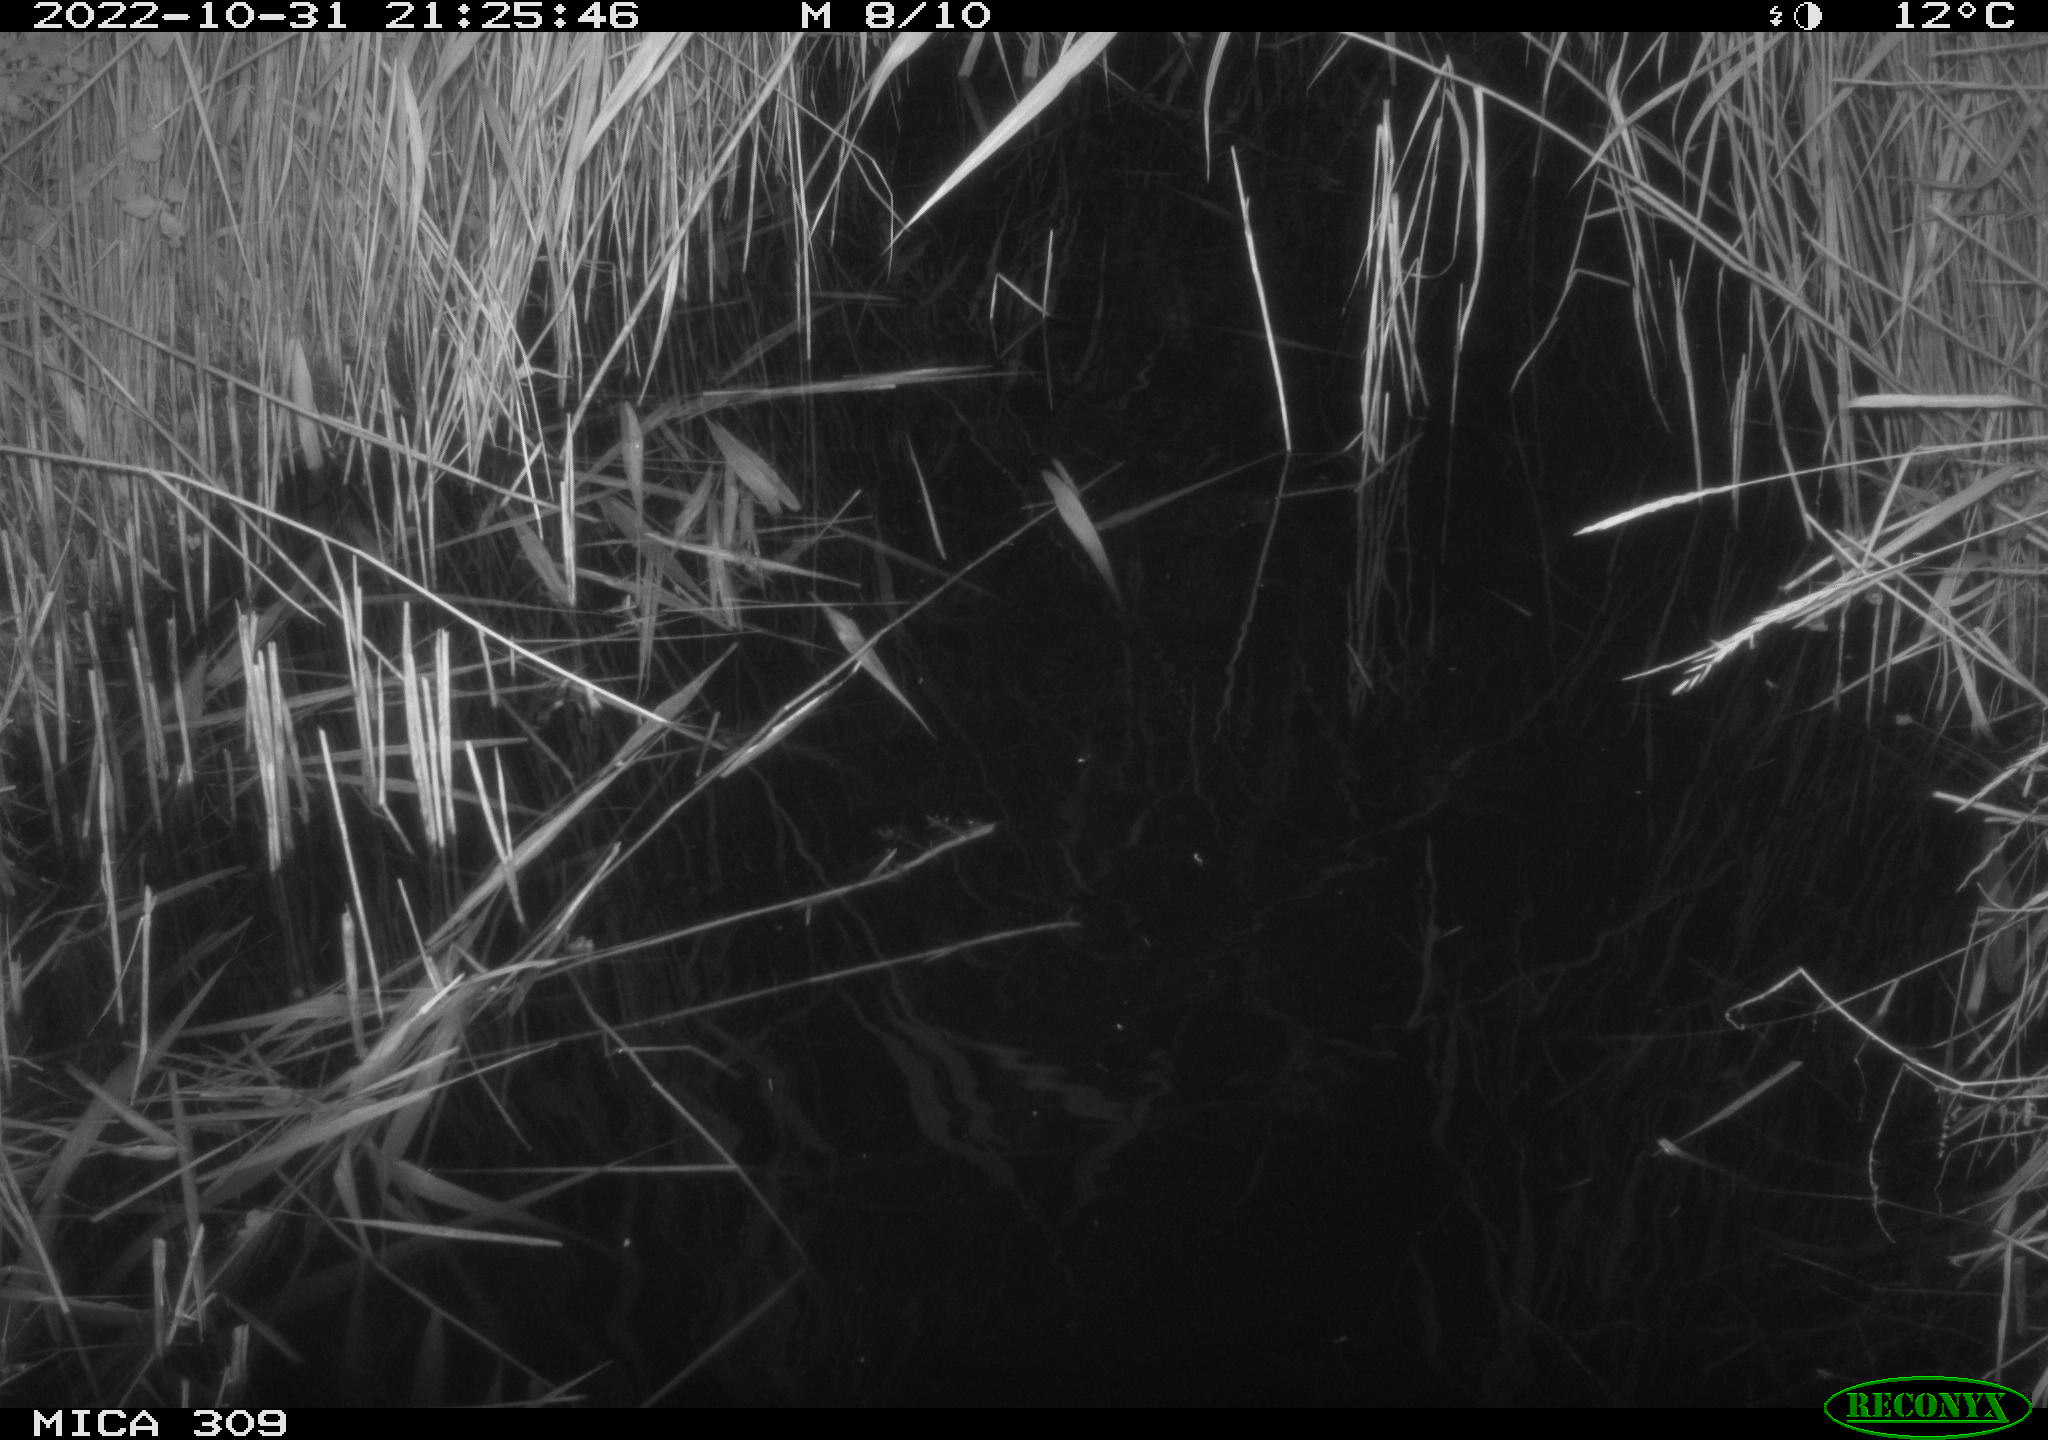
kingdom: Animalia
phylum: Chordata
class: Mammalia
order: Rodentia
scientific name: Rodentia
